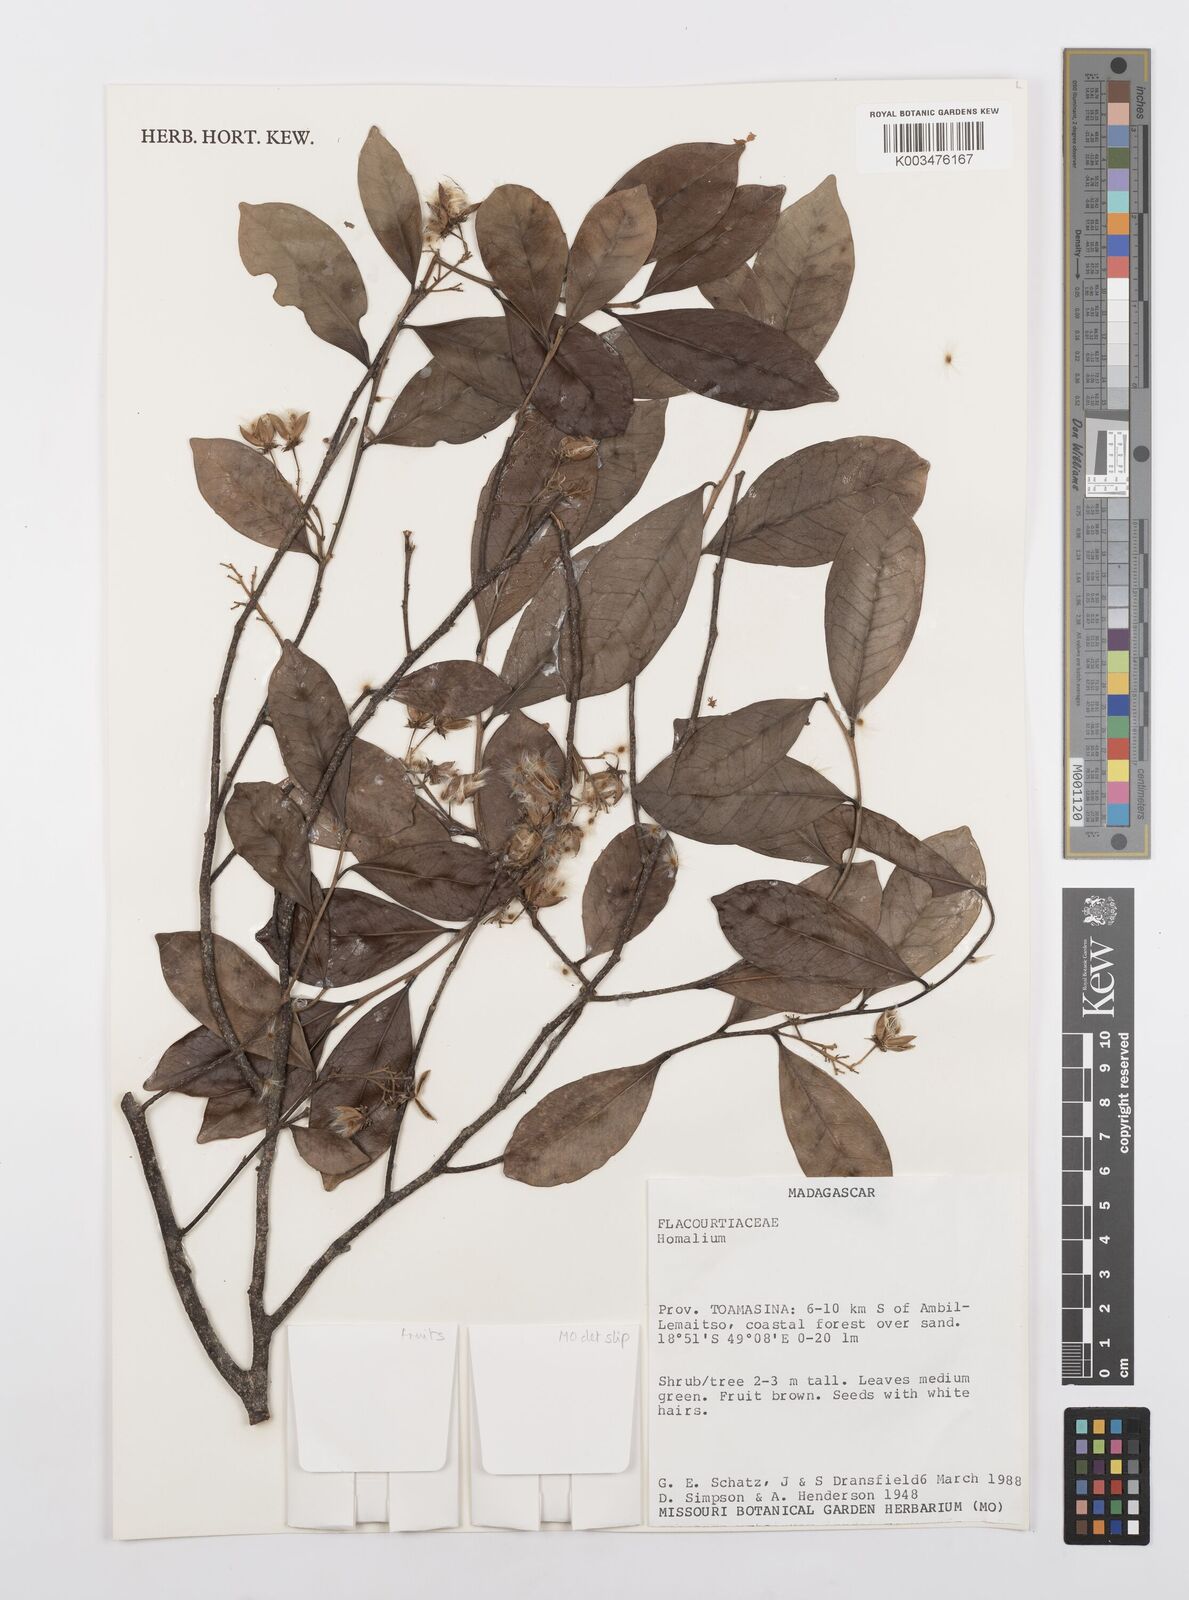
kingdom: Plantae
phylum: Tracheophyta
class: Magnoliopsida
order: Malpighiales
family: Salicaceae
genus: Homalium
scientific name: Homalium
